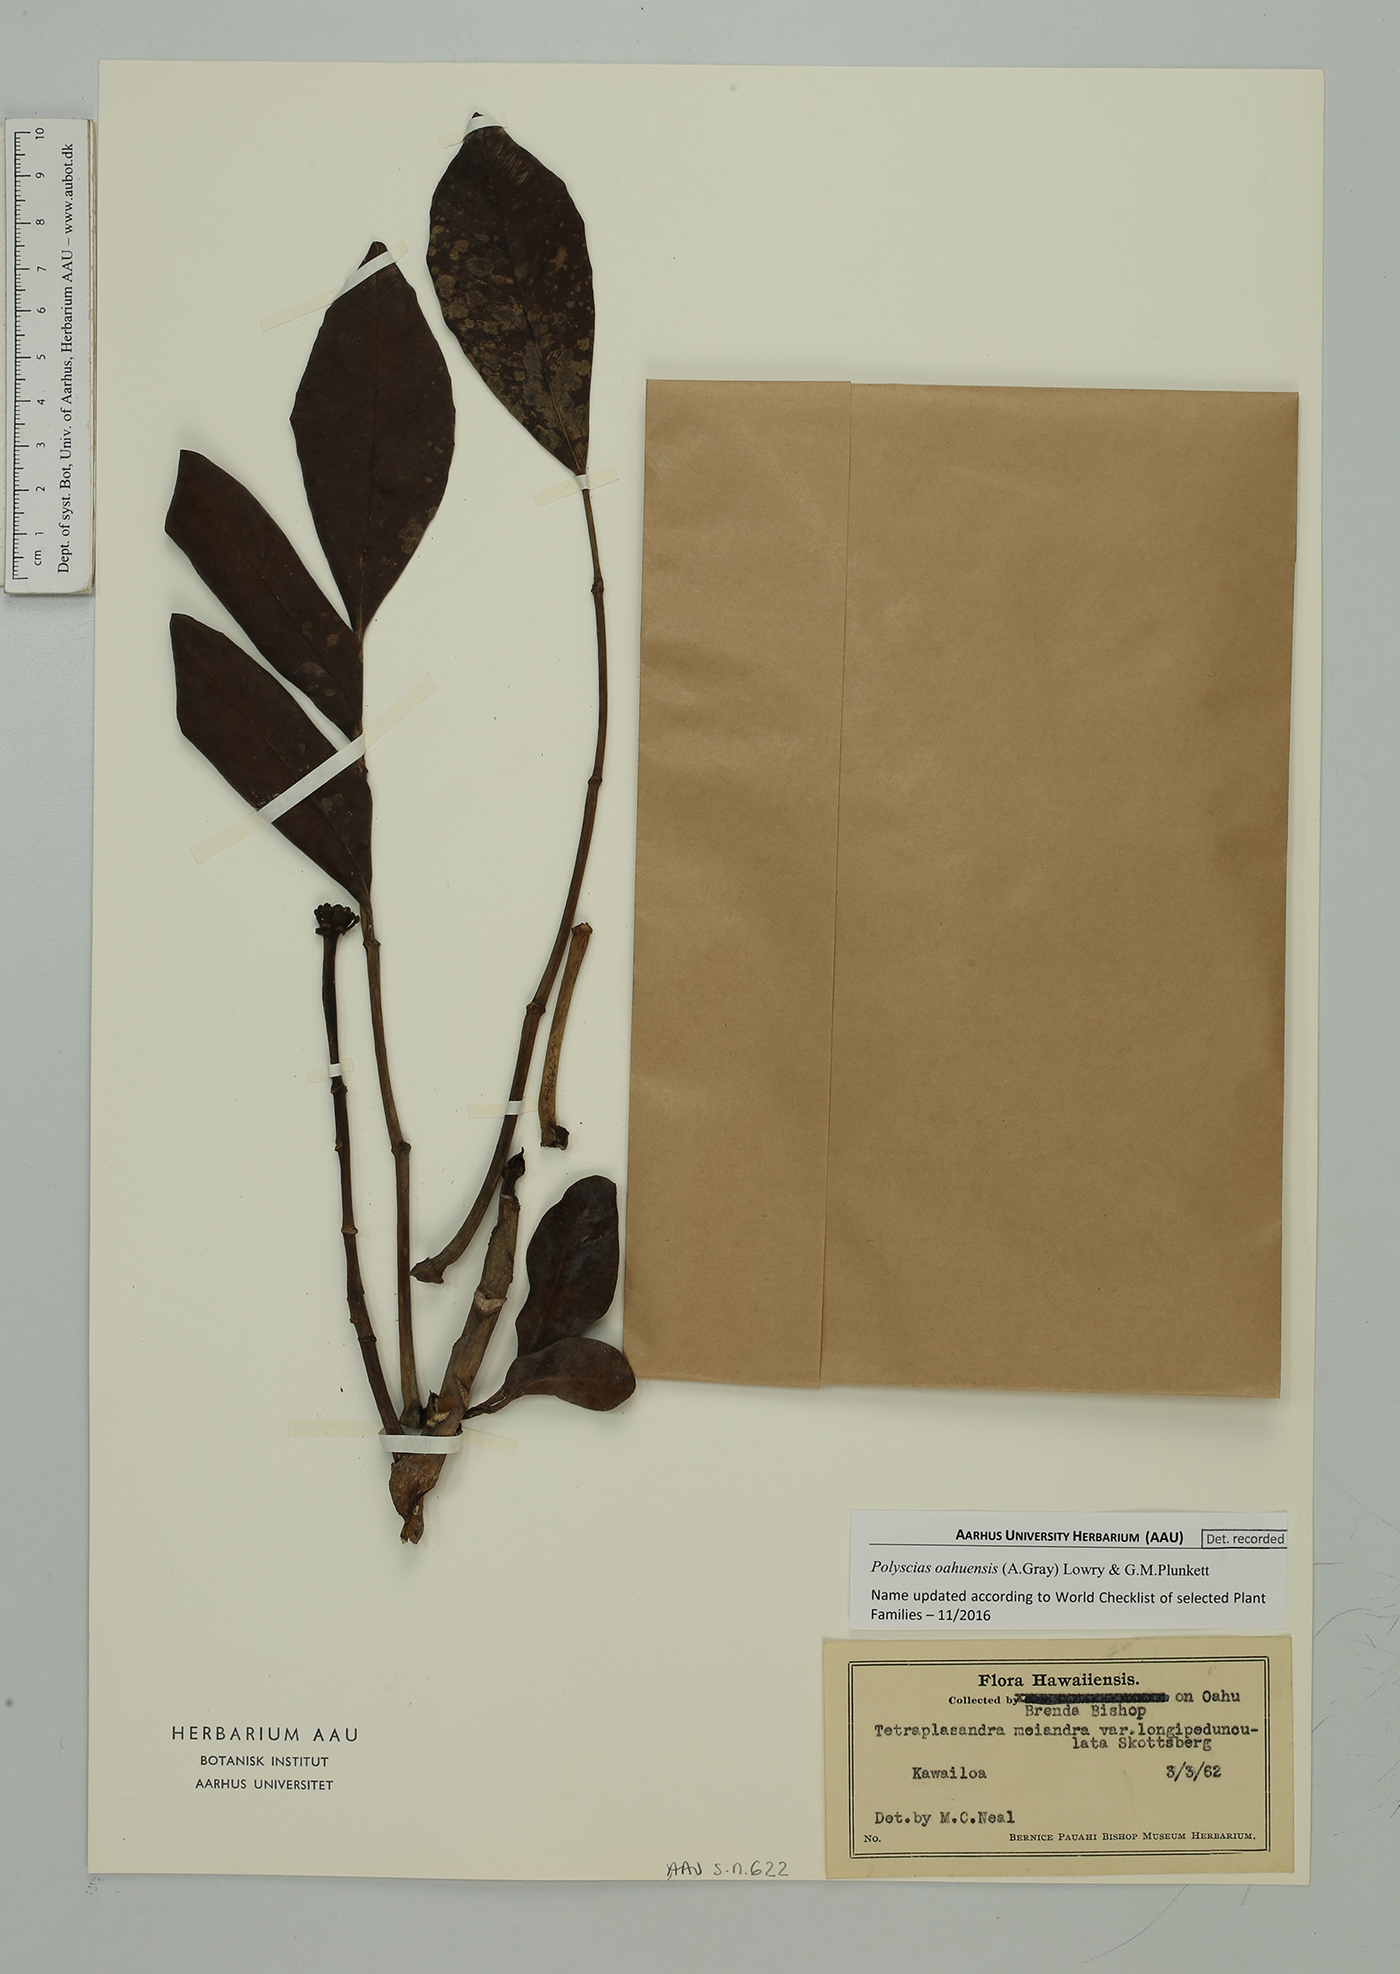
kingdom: Plantae
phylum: Tracheophyta
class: Magnoliopsida
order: Apiales
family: Araliaceae
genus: Polyscias
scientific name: Polyscias oahuensis
